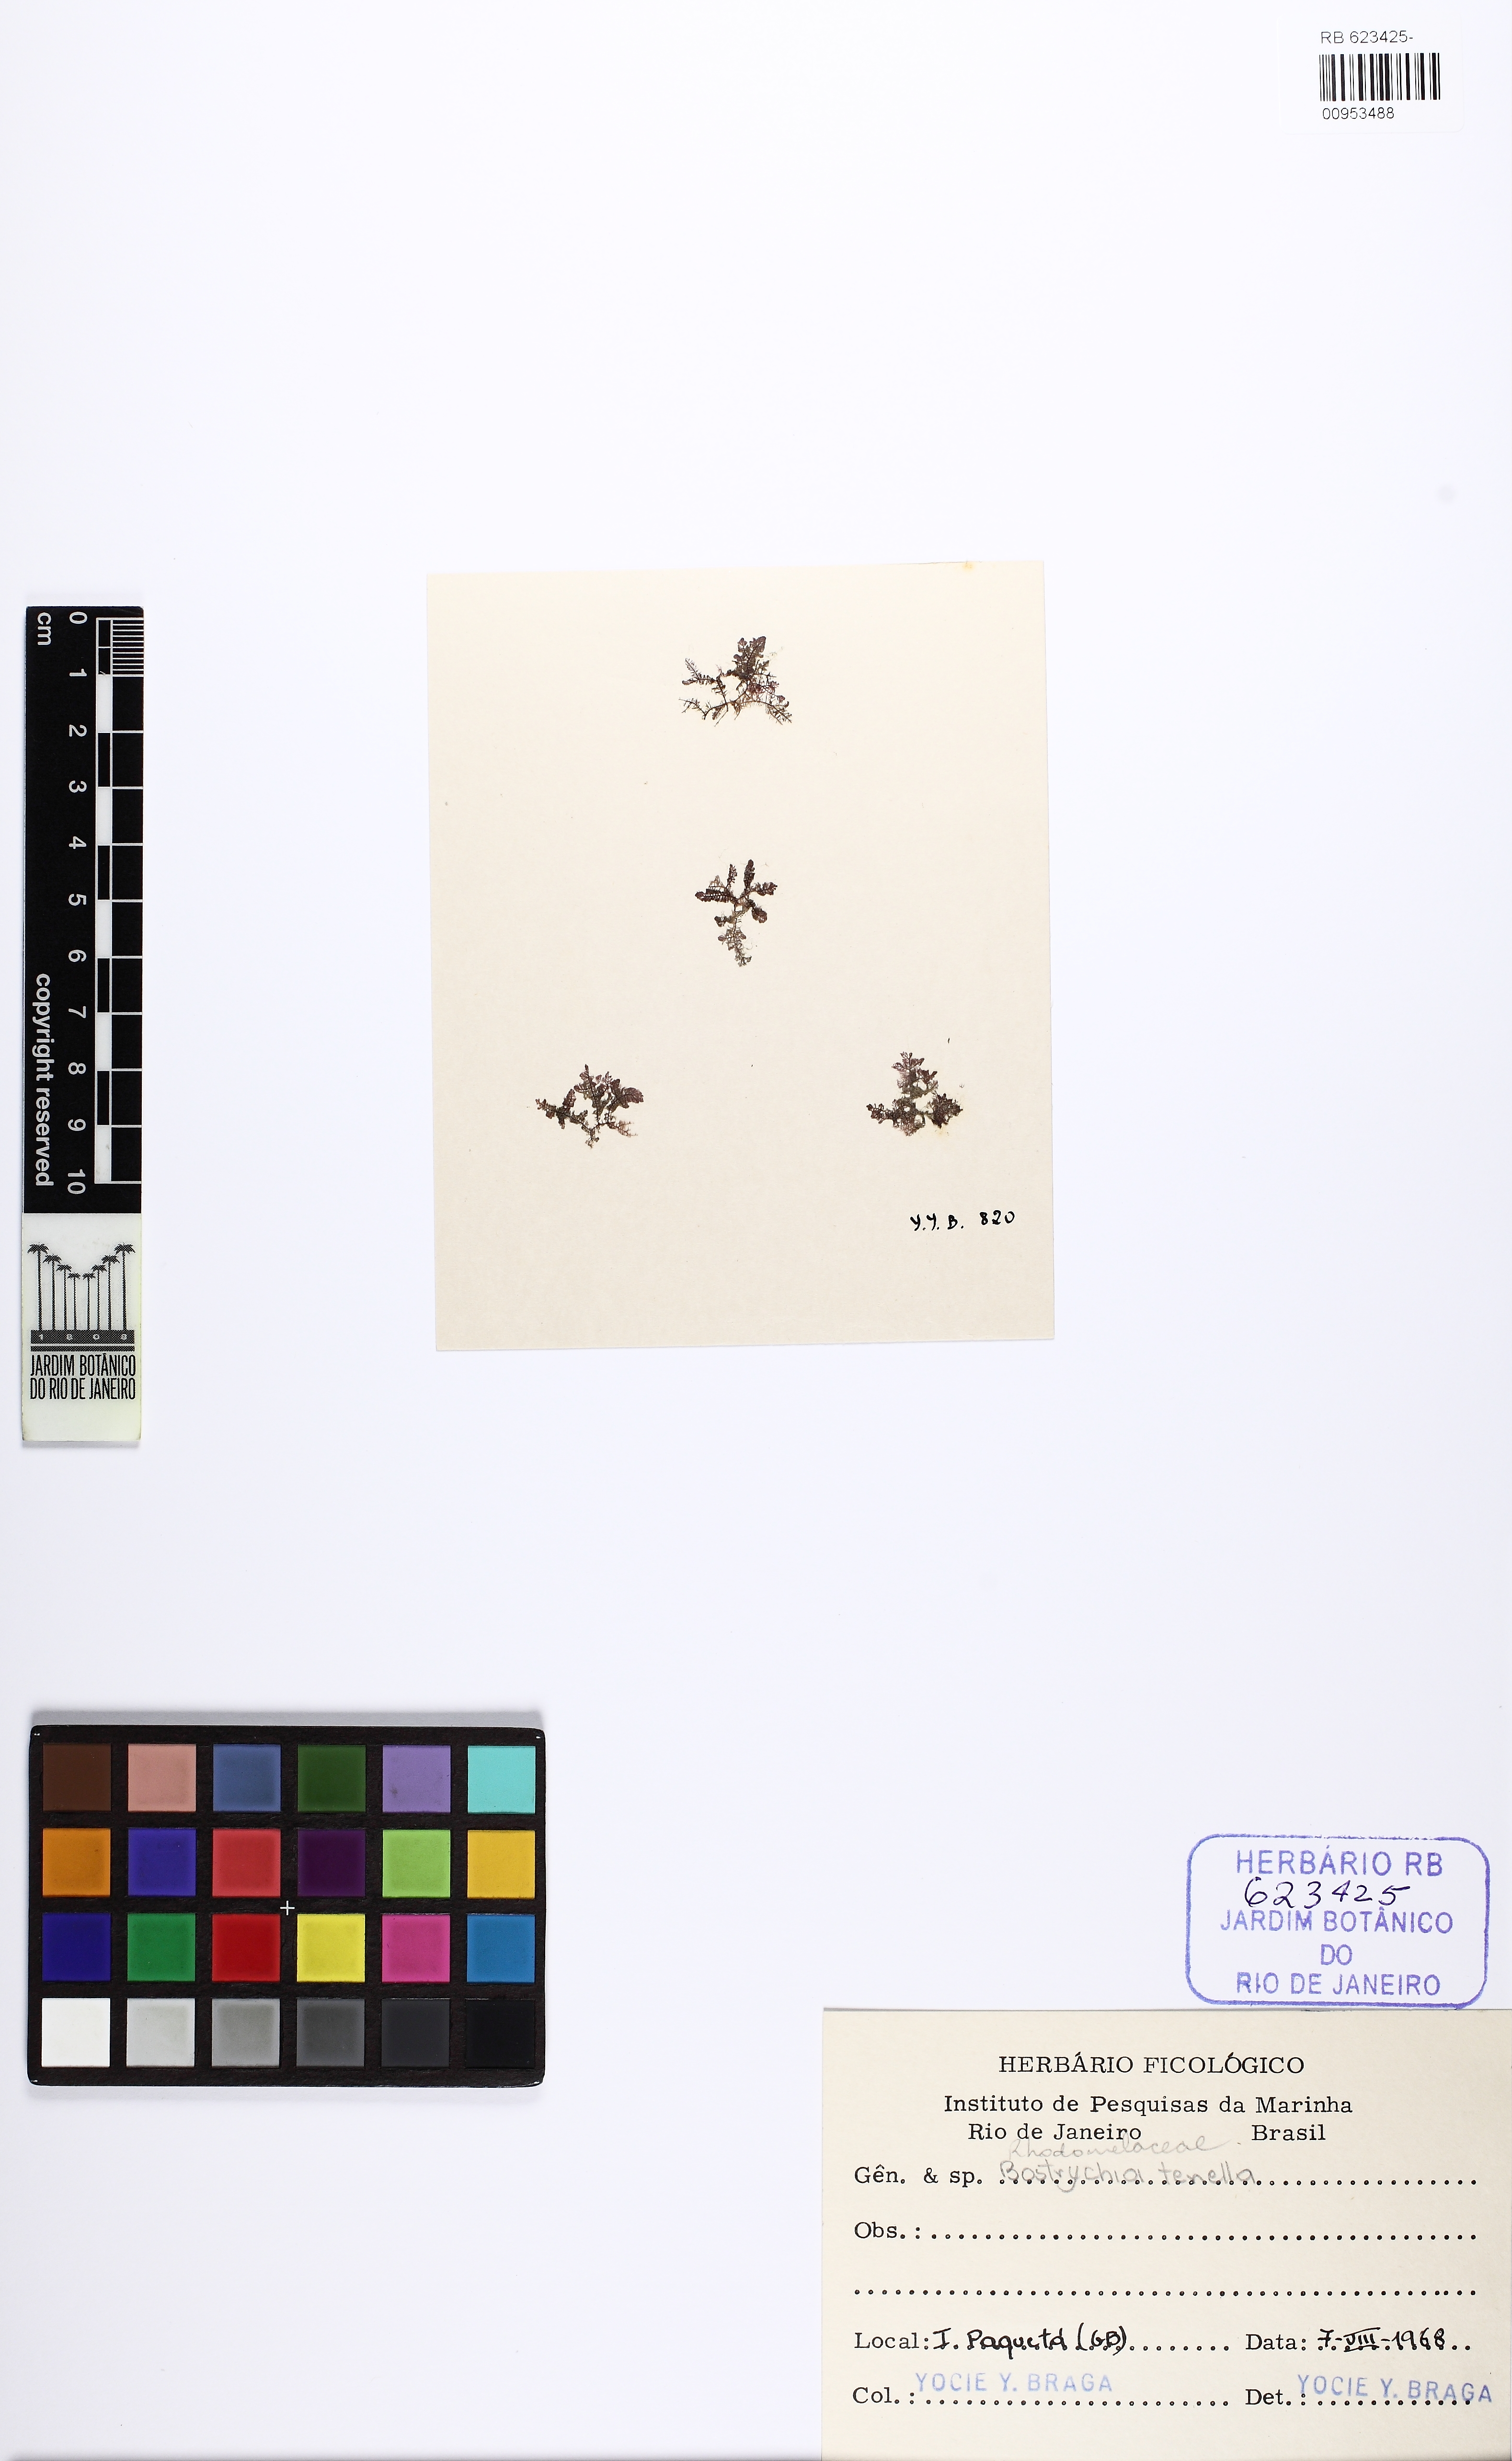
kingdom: Plantae
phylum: Rhodophyta
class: Florideophyceae
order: Ceramiales
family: Rhodomelaceae
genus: Bostrychia
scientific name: Bostrychia tenella
